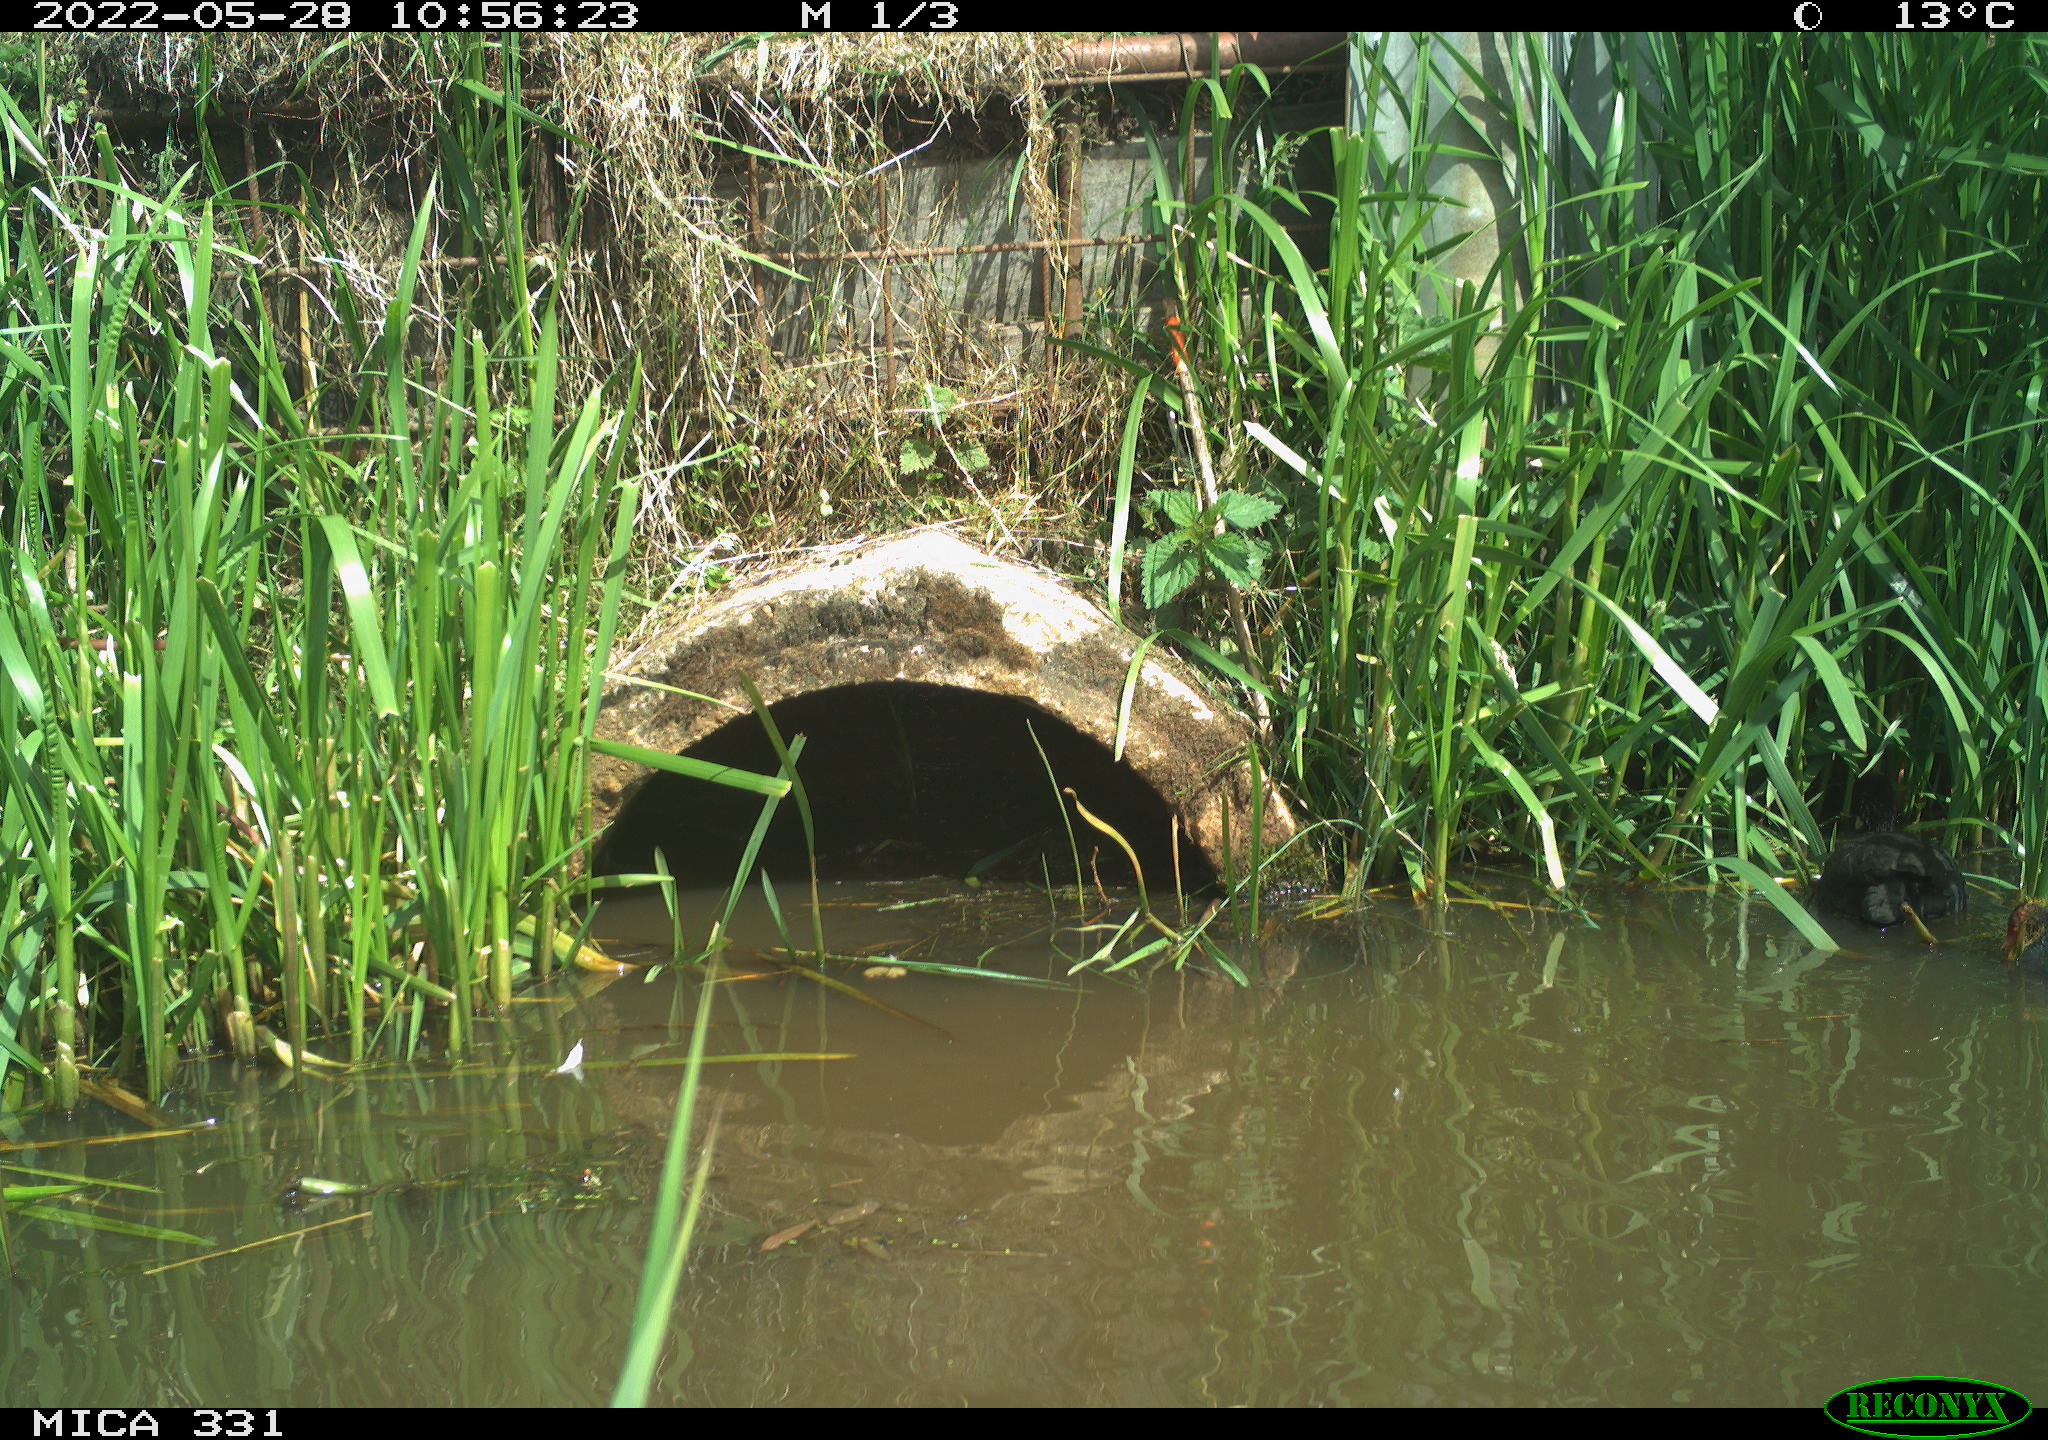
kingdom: Animalia
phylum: Chordata
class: Aves
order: Gruiformes
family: Rallidae
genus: Fulica
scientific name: Fulica atra
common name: Eurasian coot
